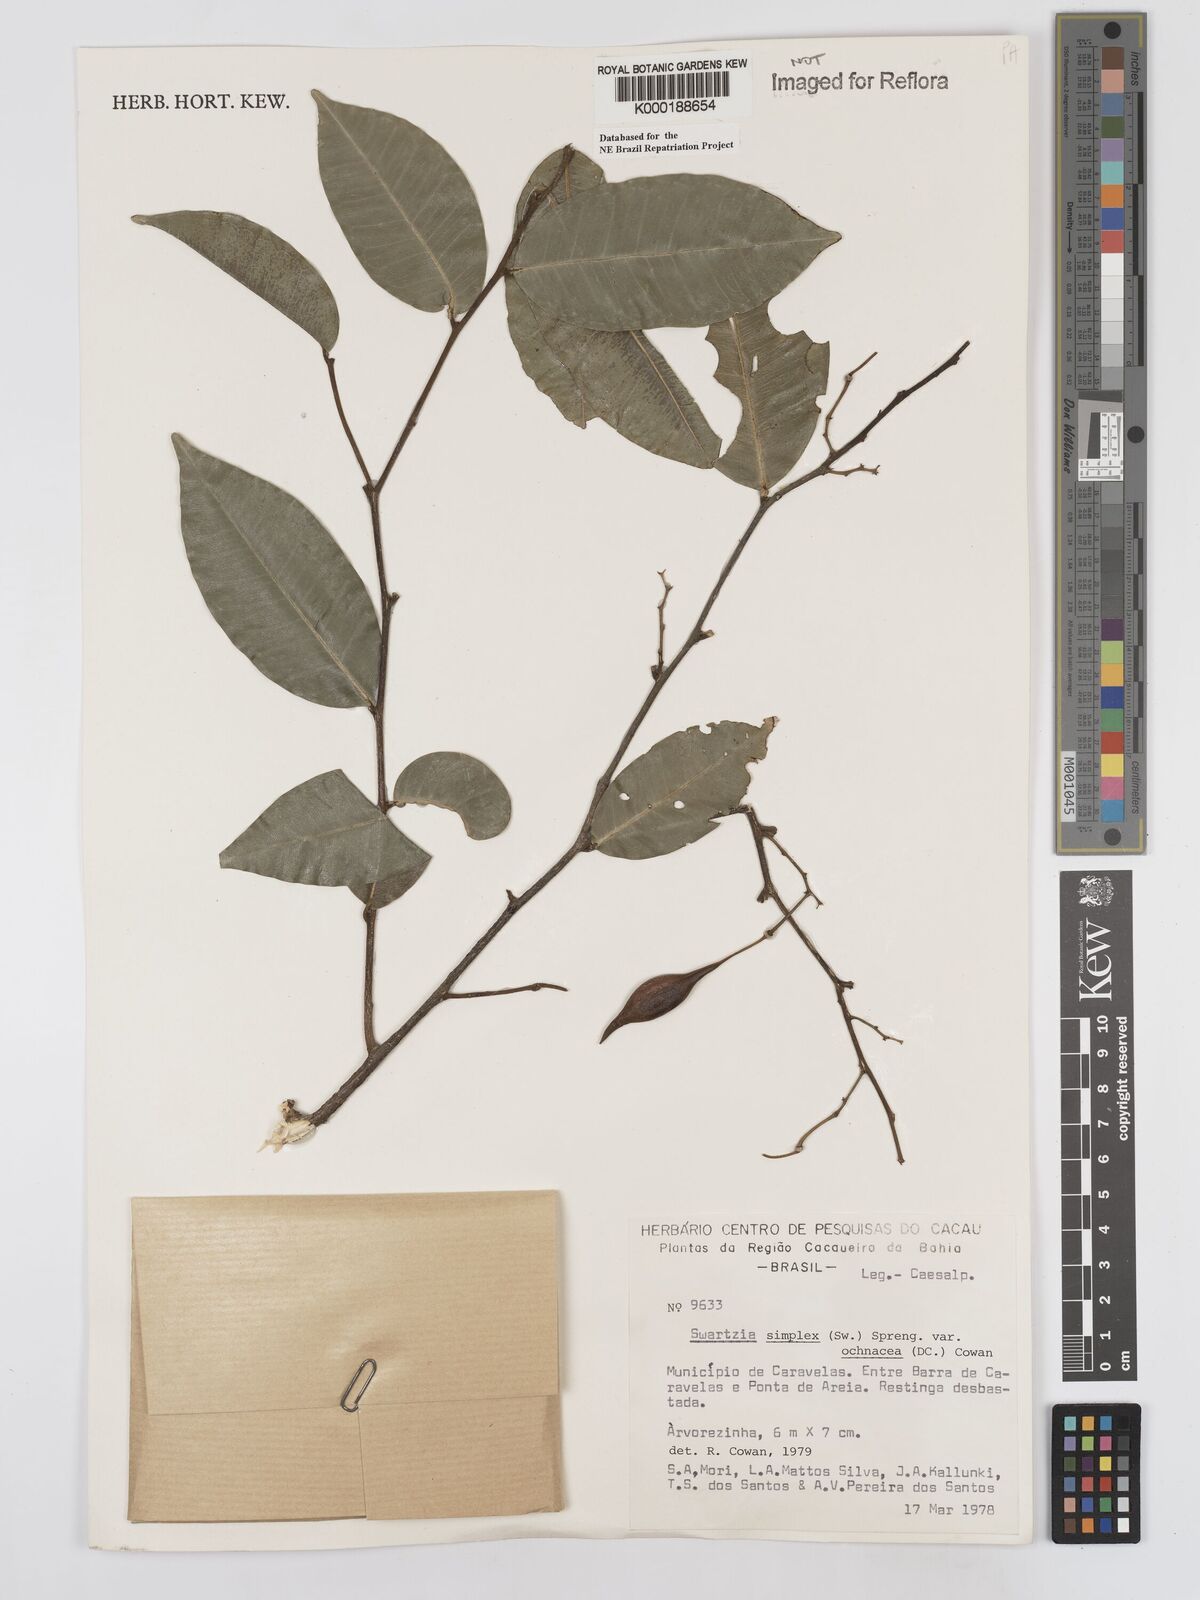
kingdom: Plantae
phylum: Tracheophyta
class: Magnoliopsida
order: Fabales
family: Fabaceae
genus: Swartzia
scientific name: Swartzia simplex
